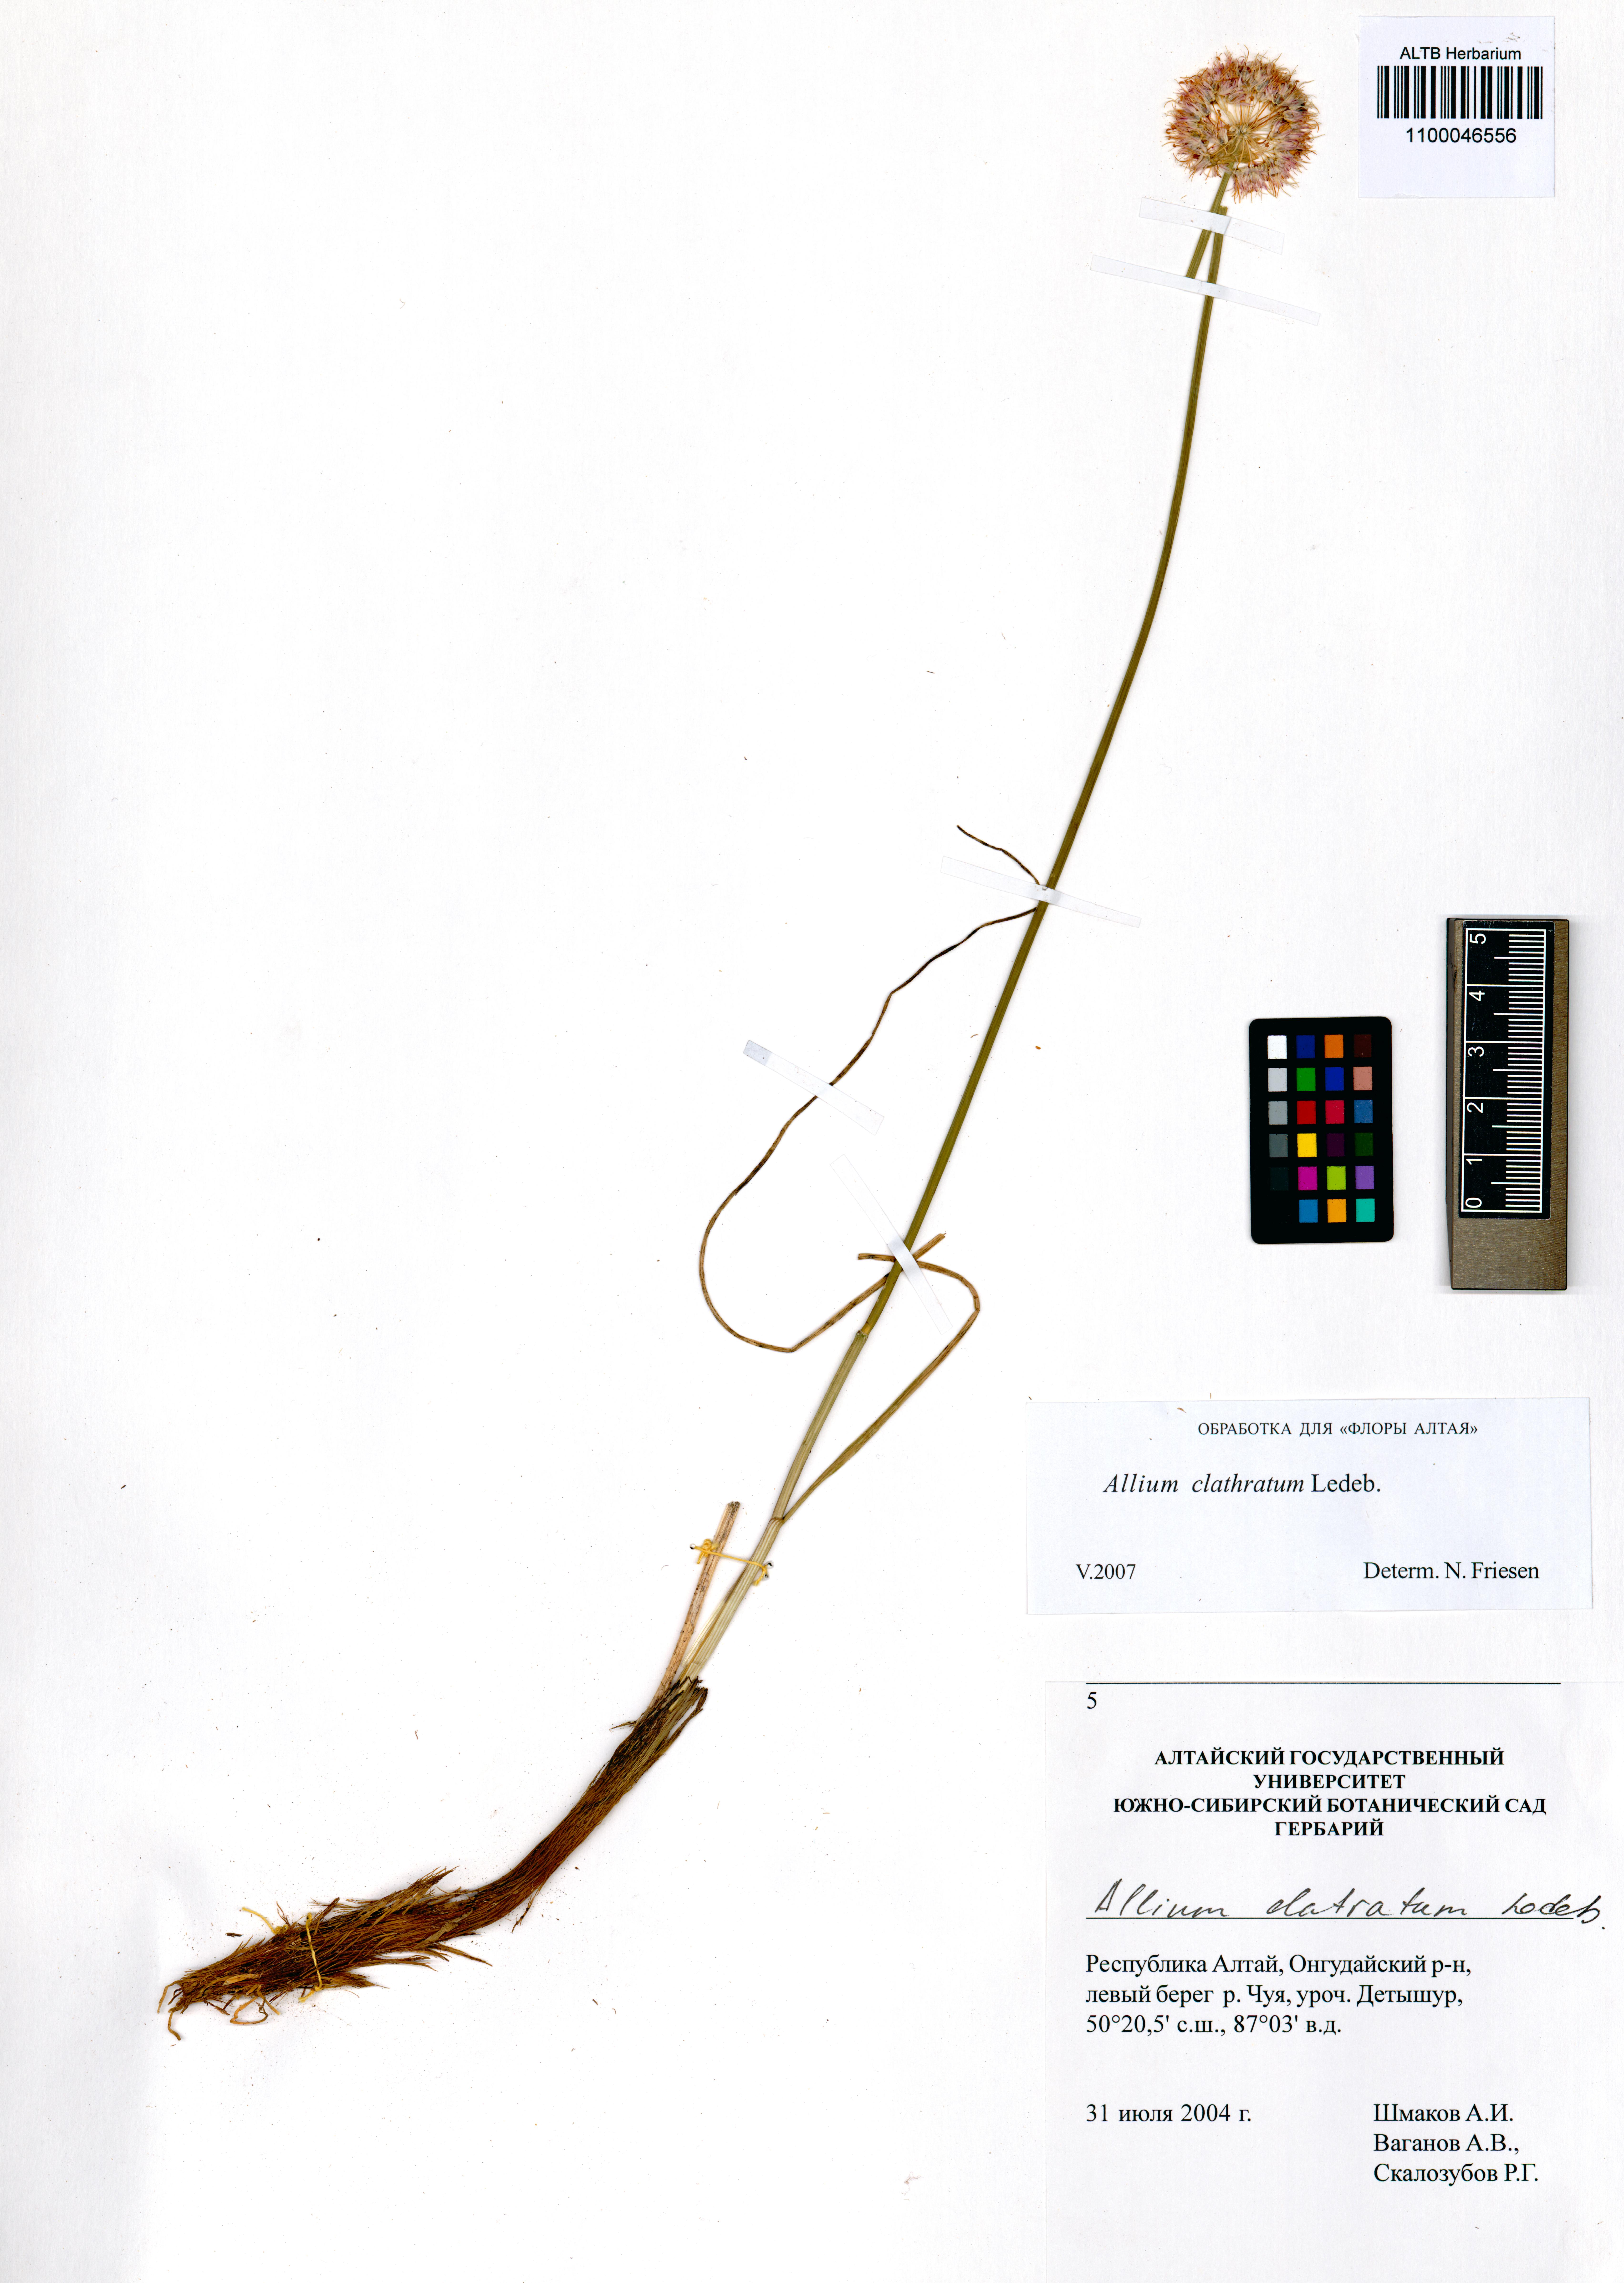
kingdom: Plantae
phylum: Tracheophyta
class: Liliopsida
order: Asparagales
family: Amaryllidaceae
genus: Allium
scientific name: Allium clathratum
